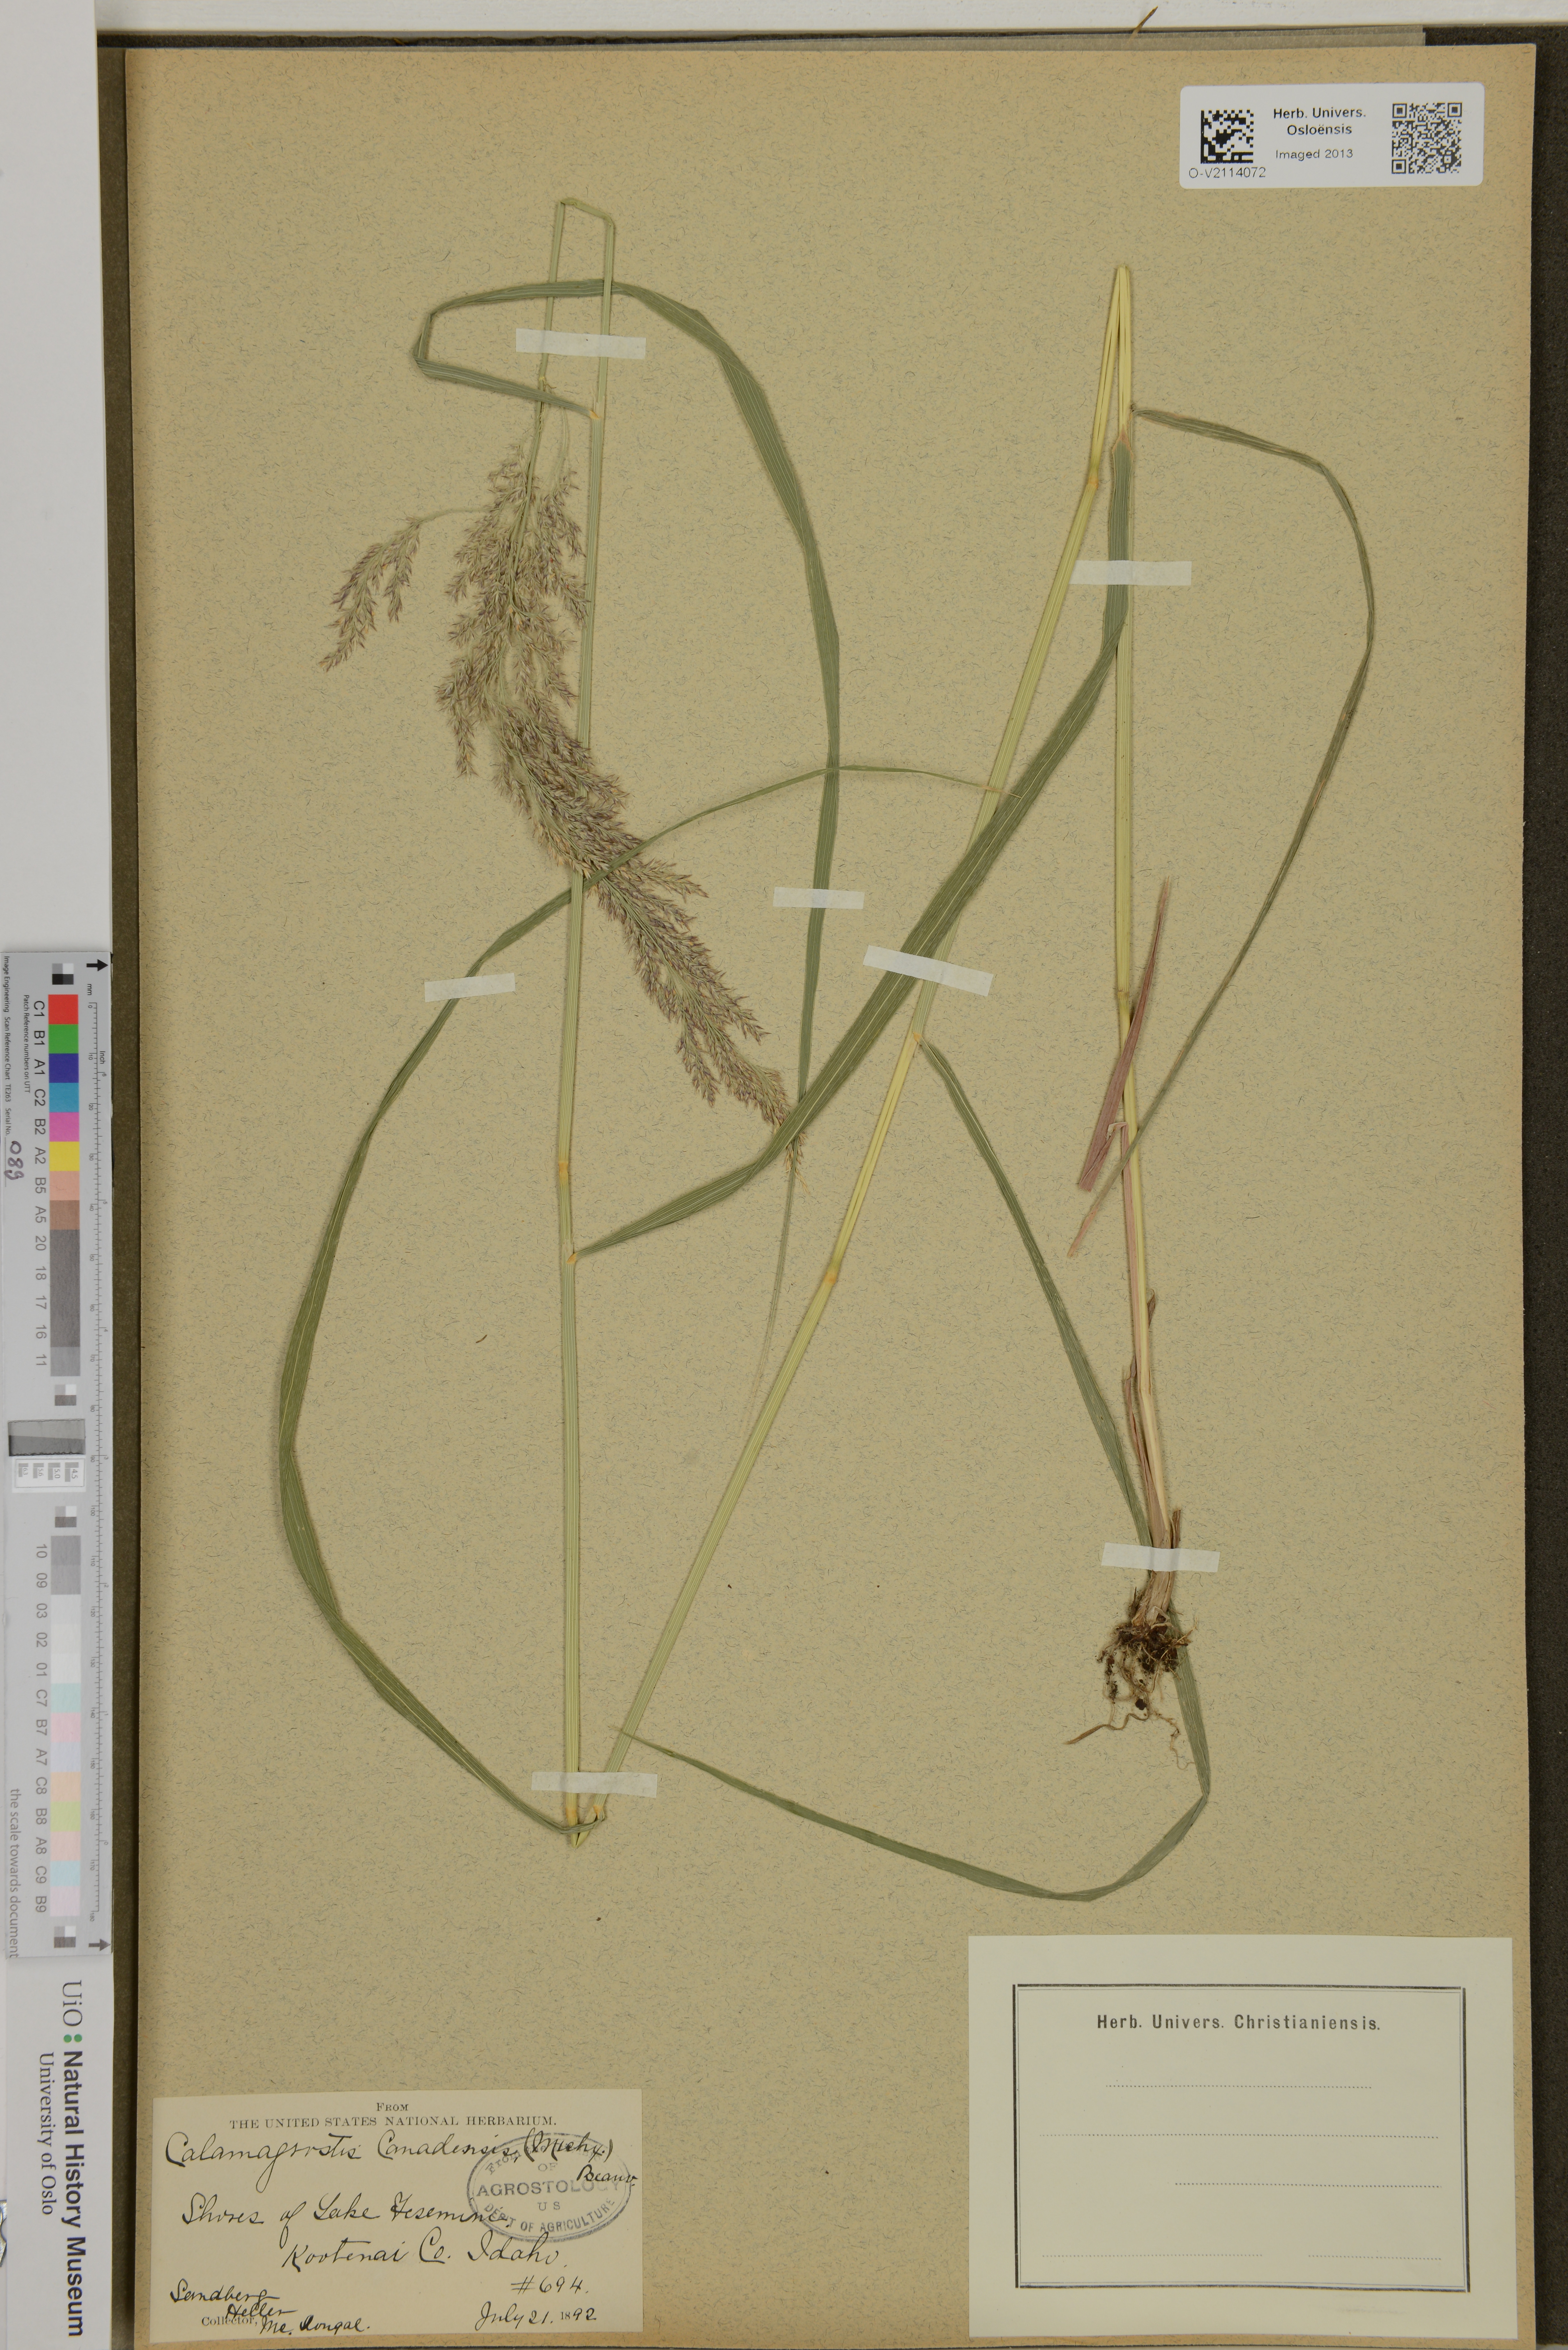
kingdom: Plantae
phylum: Tracheophyta
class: Liliopsida
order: Poales
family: Poaceae
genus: Calamagrostis
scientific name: Calamagrostis canadensis
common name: Canada bluejoint
